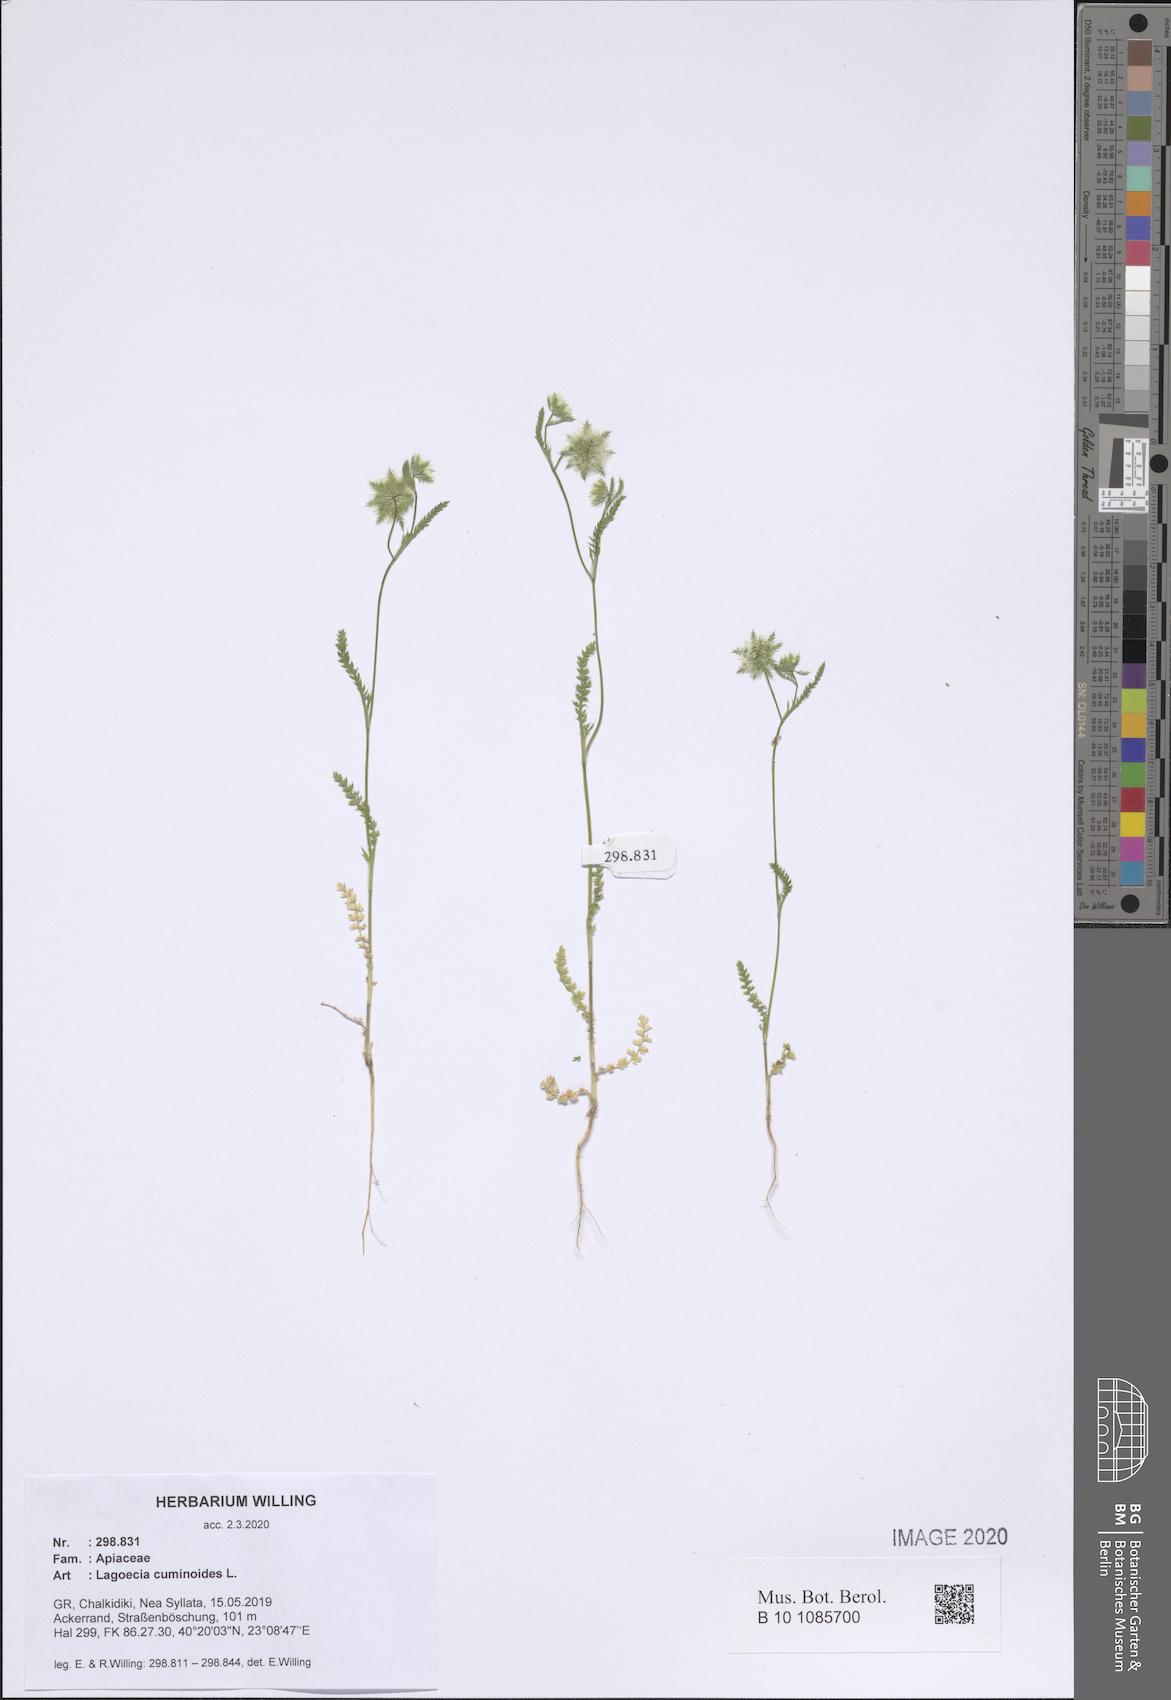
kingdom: Plantae
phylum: Tracheophyta
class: Magnoliopsida
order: Apiales
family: Apiaceae
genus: Lagoecia
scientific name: Lagoecia cuminoides
